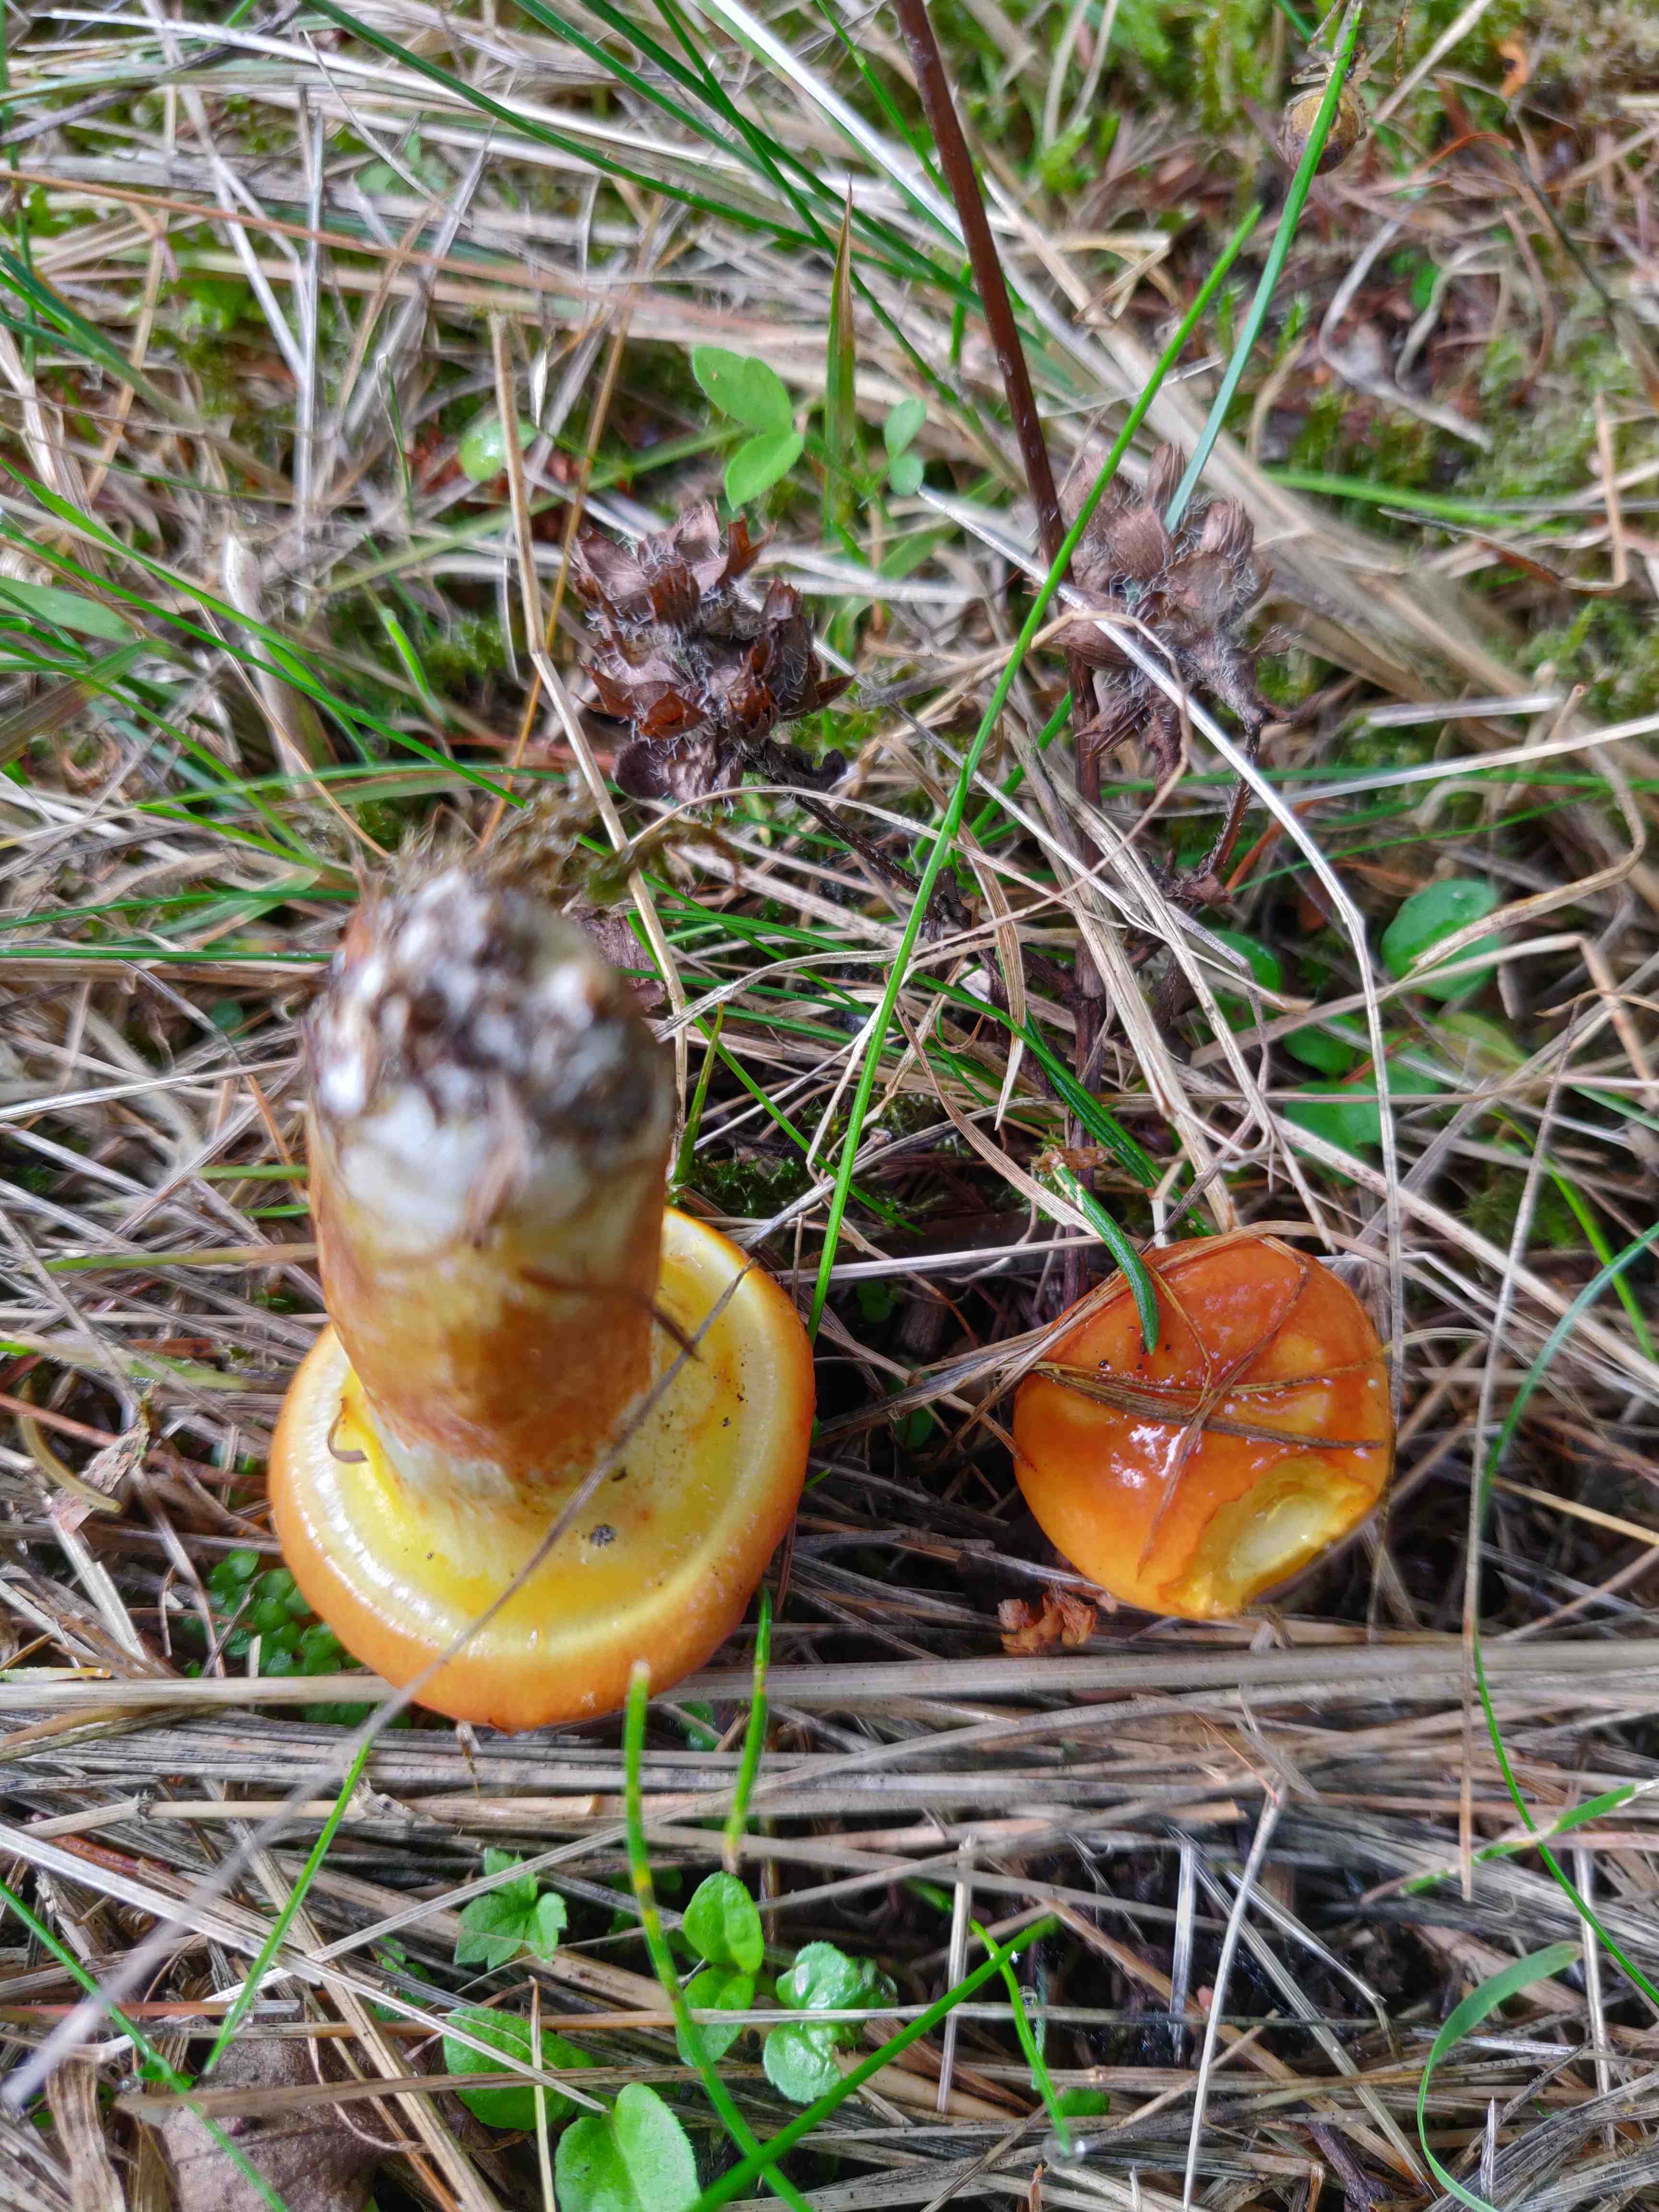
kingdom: Fungi
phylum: Basidiomycota
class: Agaricomycetes
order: Boletales
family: Suillaceae
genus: Suillus
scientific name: Suillus grevillei
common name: lærke-slimrørhat
